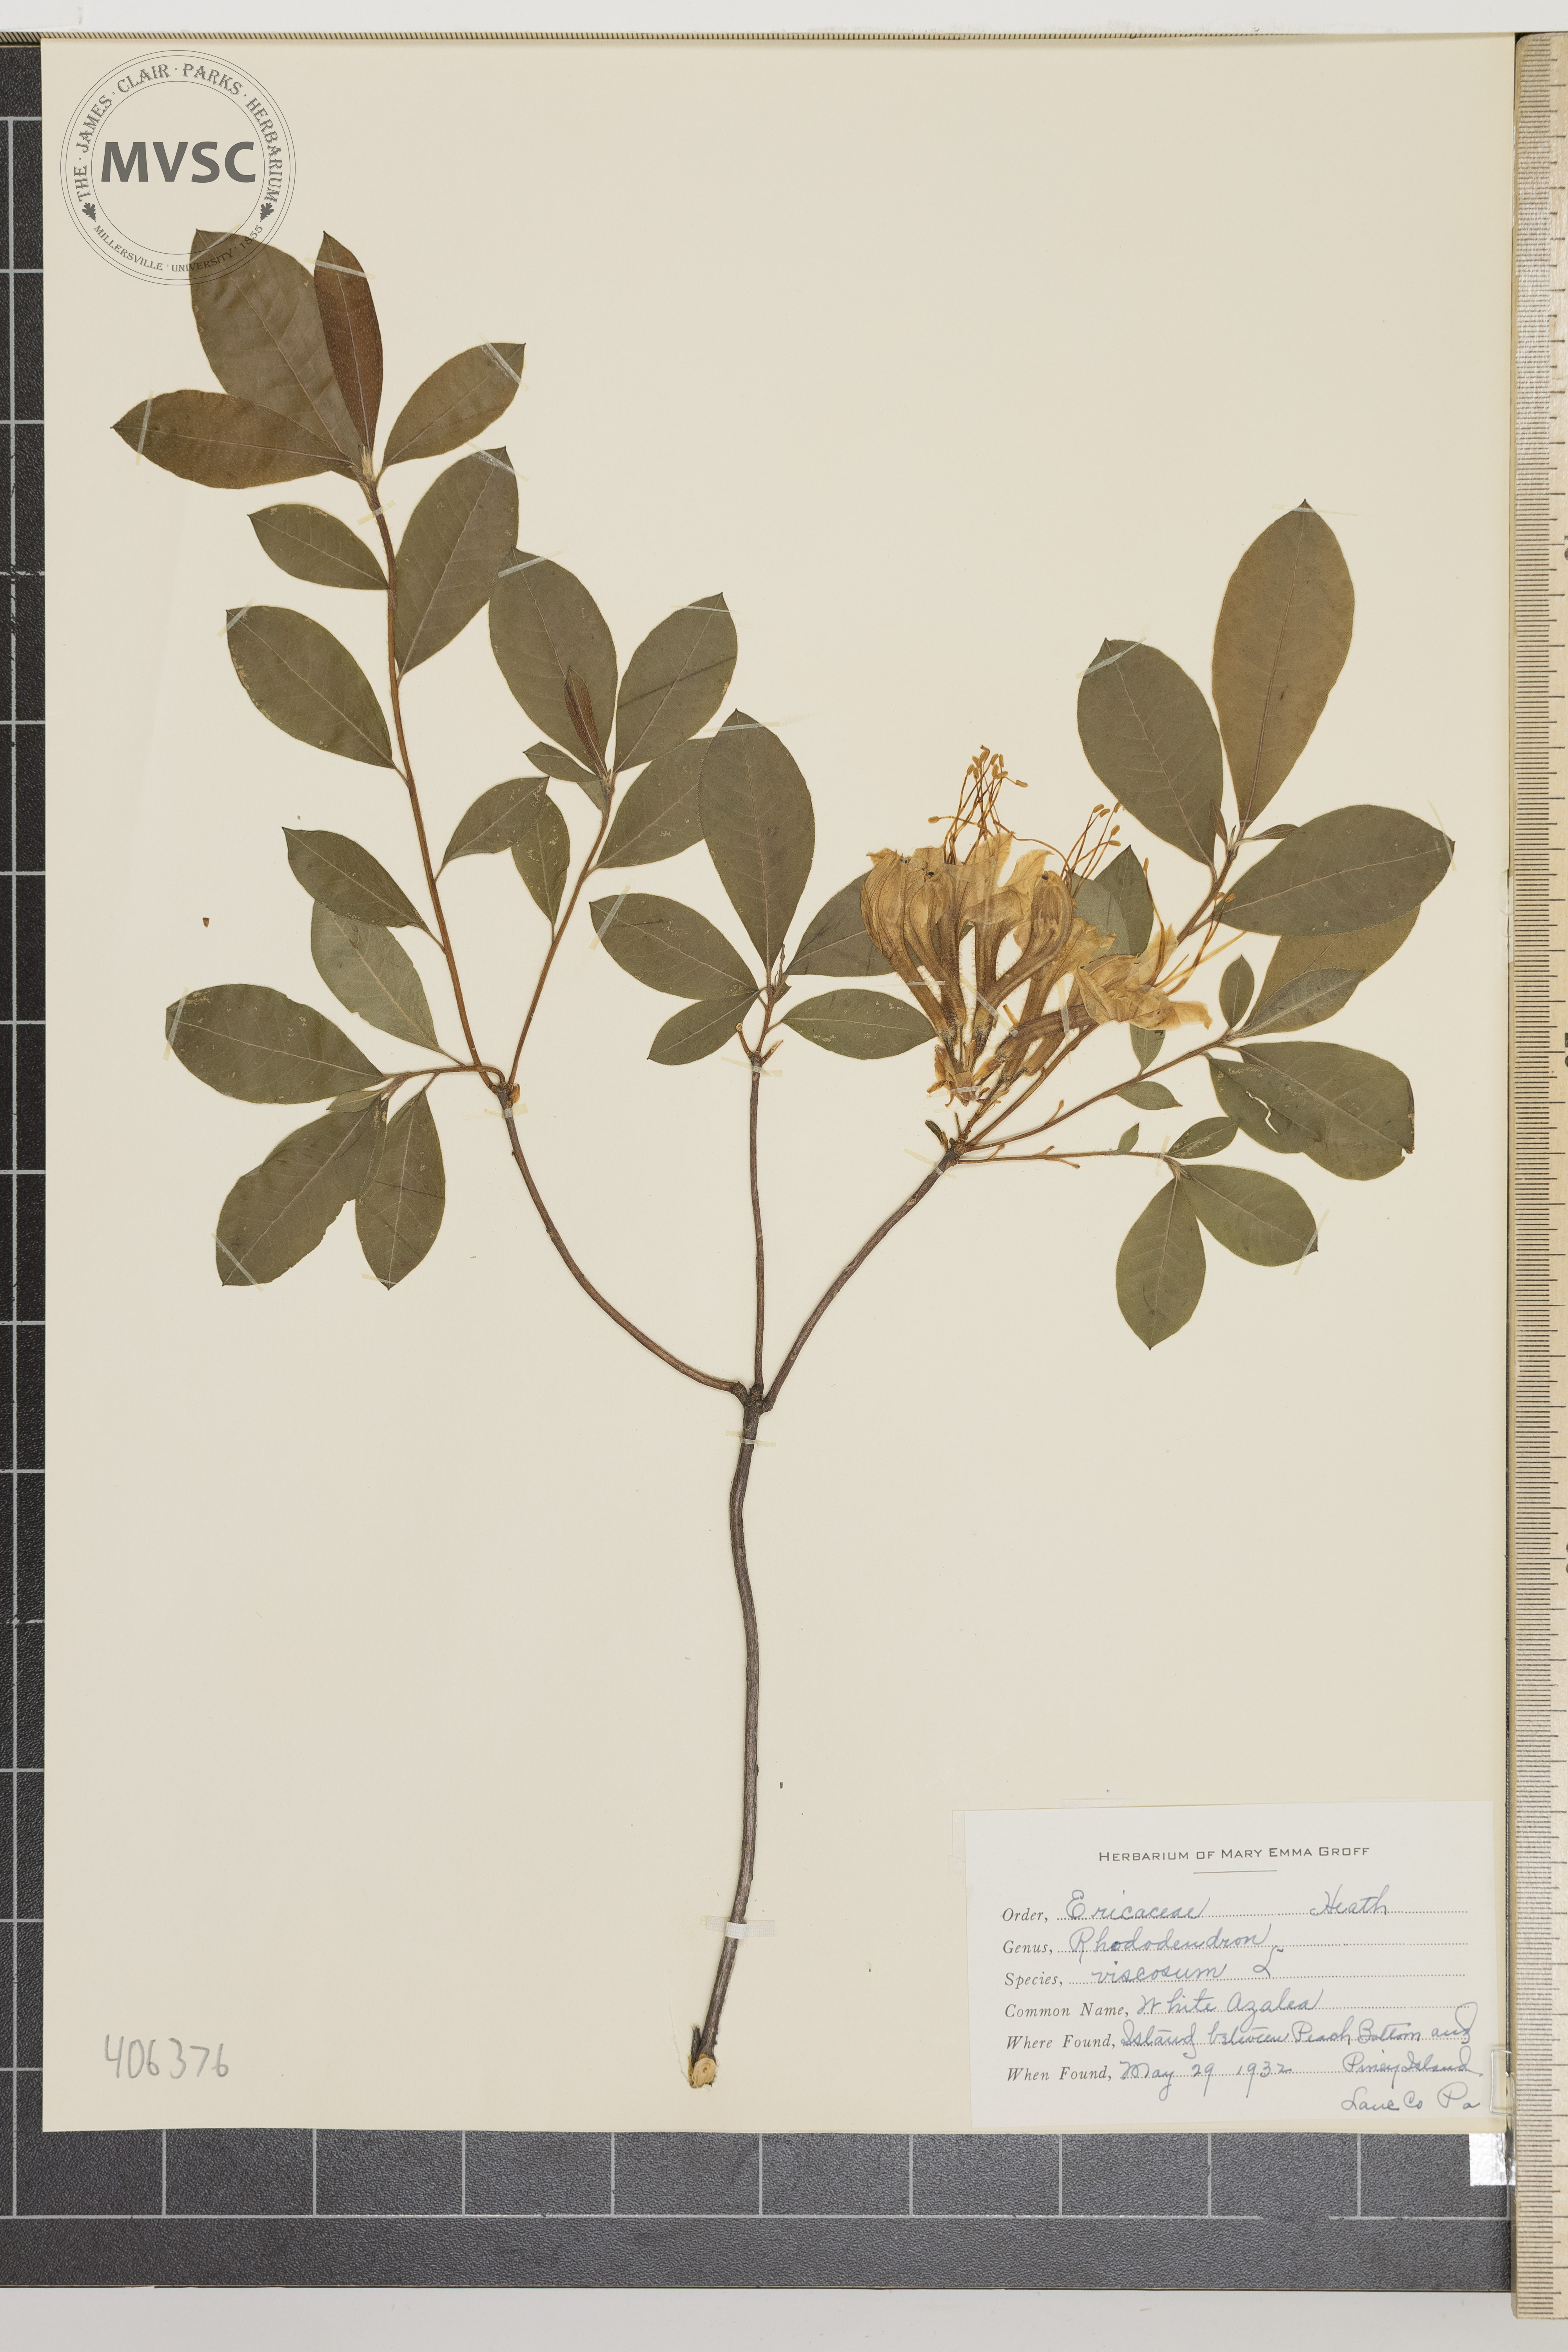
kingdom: Plantae
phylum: Tracheophyta
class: Magnoliopsida
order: Ericales
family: Ericaceae
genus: Rhododendron
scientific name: Rhododendron viscosum
